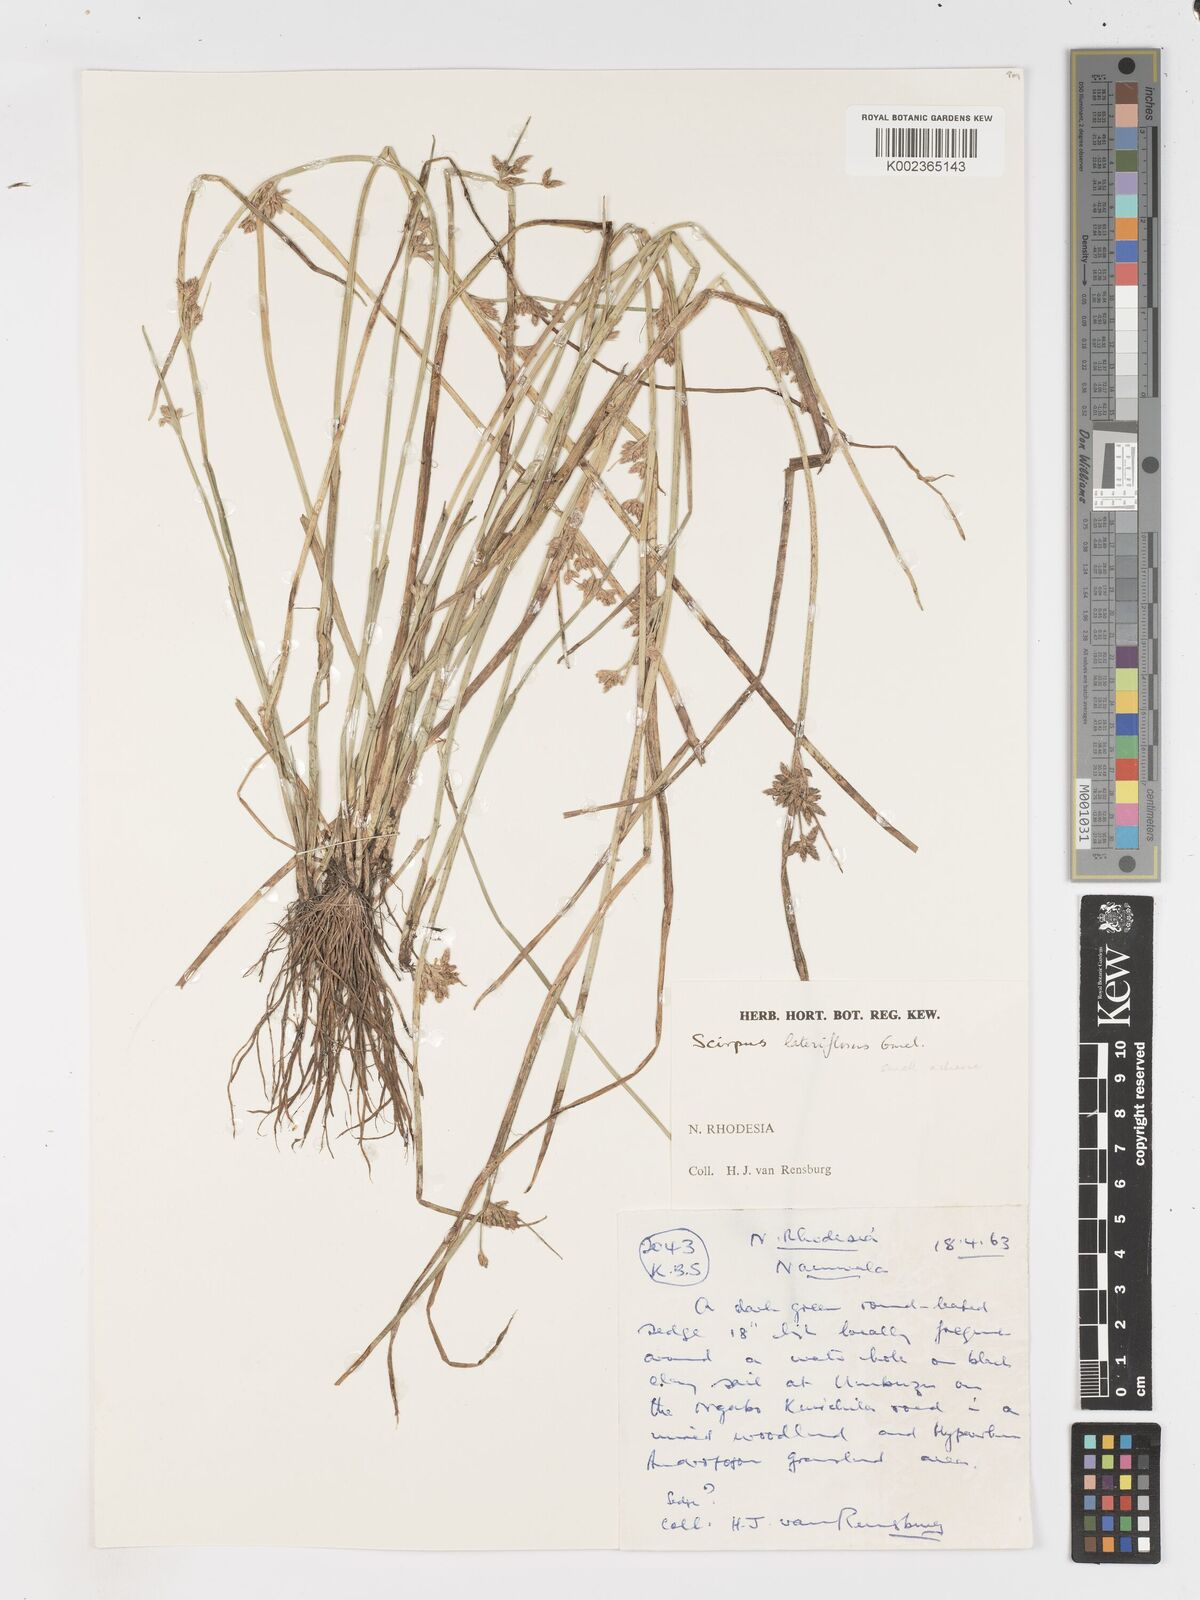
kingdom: Plantae
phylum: Tracheophyta
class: Liliopsida
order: Poales
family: Cyperaceae
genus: Schoenoplectiella
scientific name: Schoenoplectiella lateriflora
